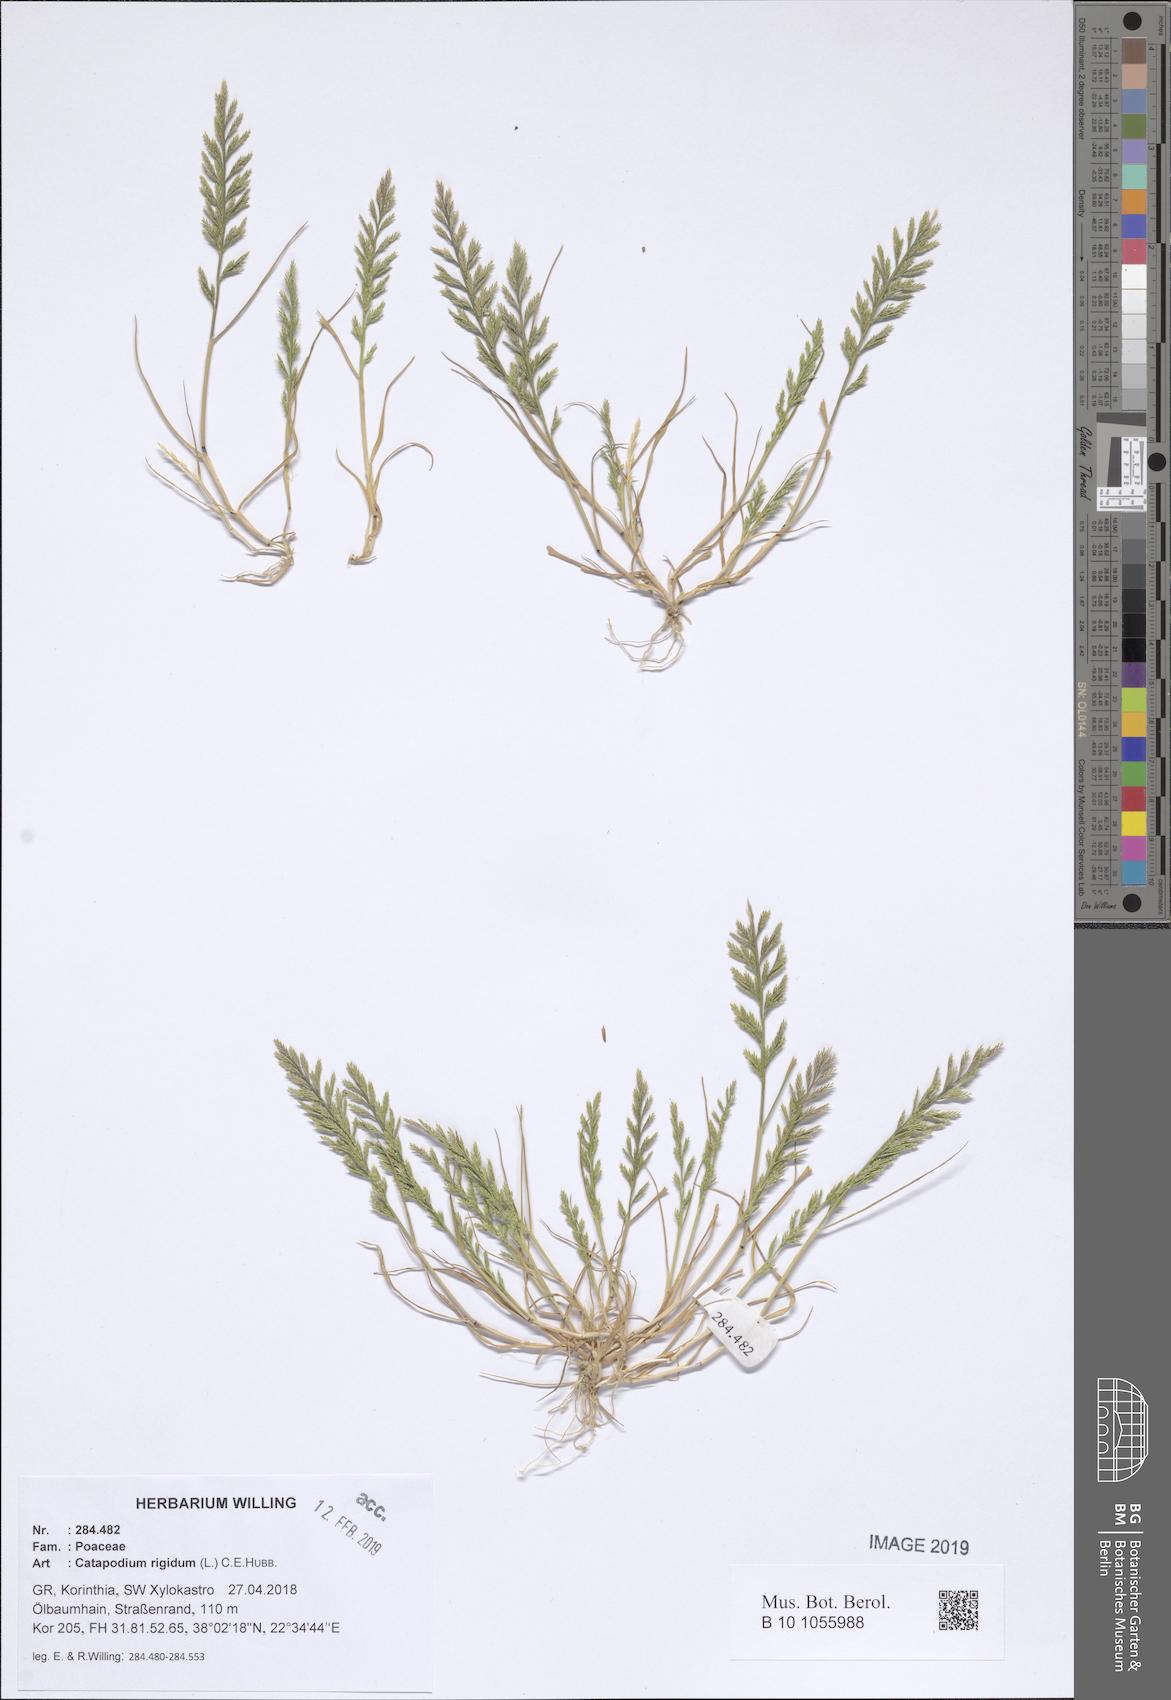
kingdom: Plantae
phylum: Tracheophyta
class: Liliopsida
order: Poales
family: Poaceae
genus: Catapodium
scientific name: Catapodium rigidum
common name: Fern-grass
